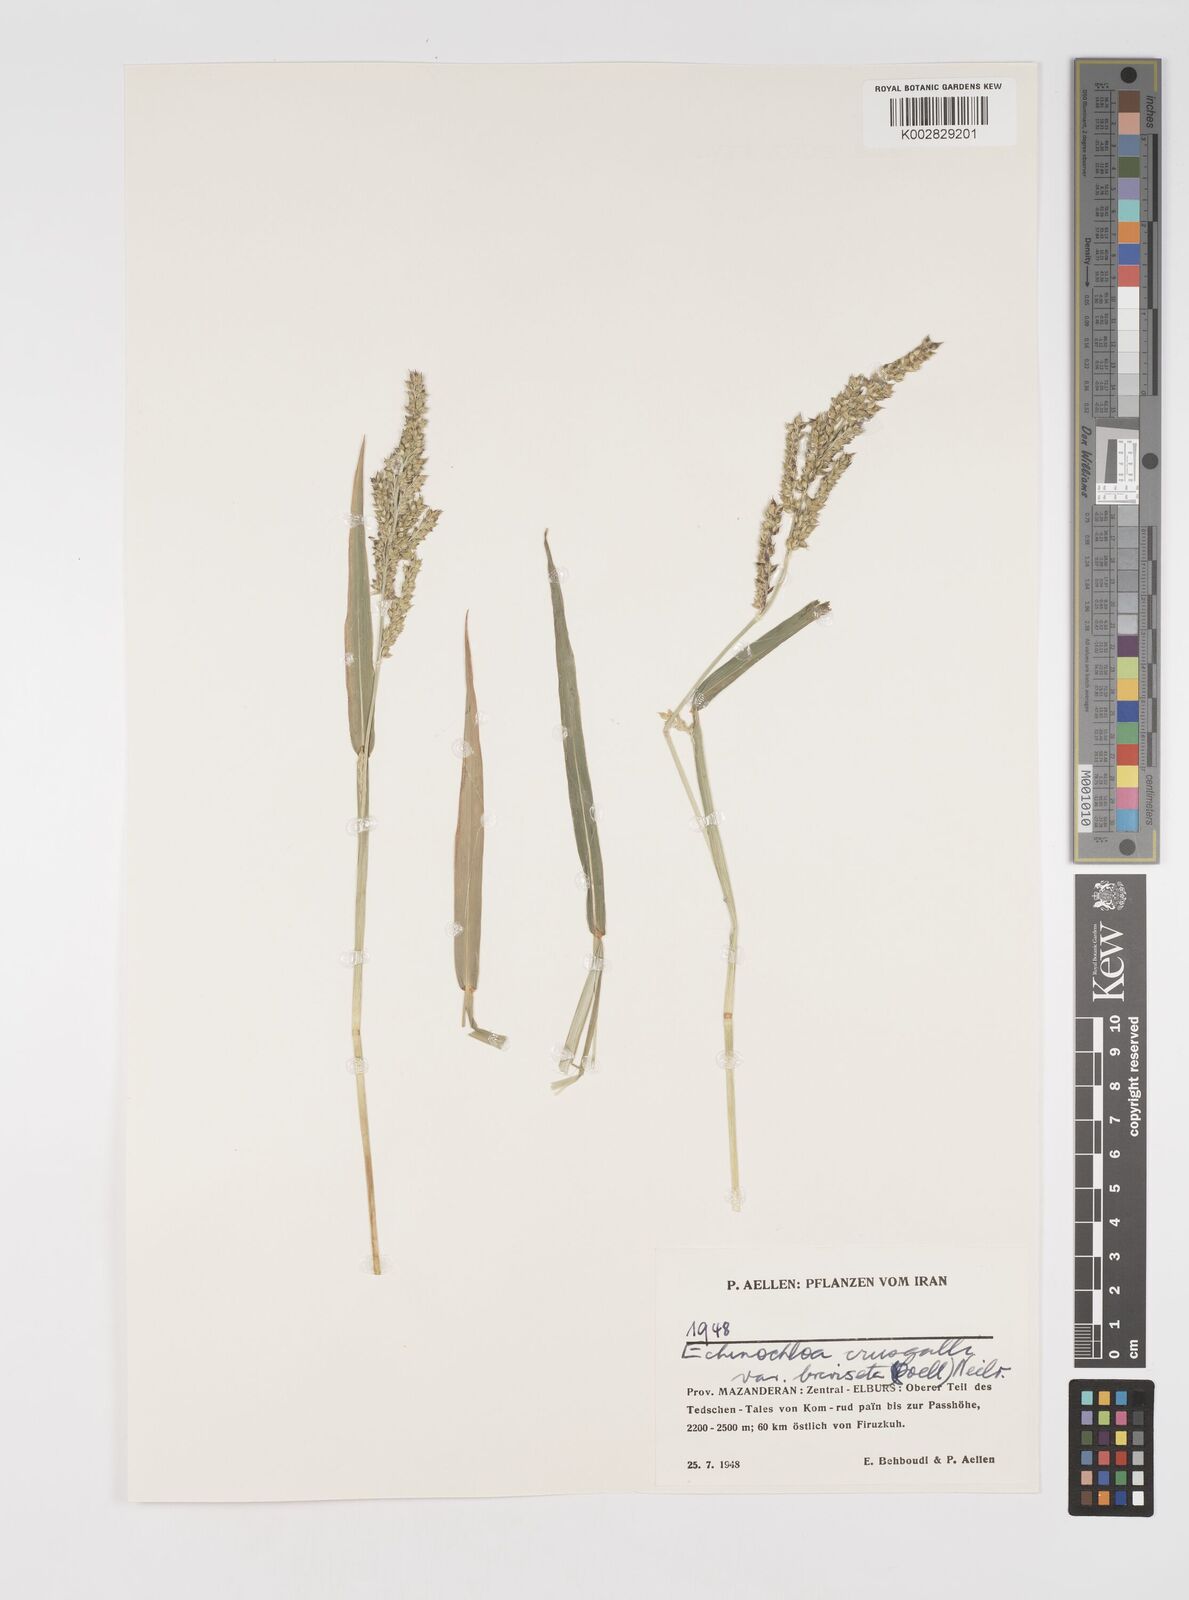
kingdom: Plantae
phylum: Tracheophyta
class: Liliopsida
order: Poales
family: Poaceae
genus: Echinochloa
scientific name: Echinochloa crus-galli
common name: Cockspur
